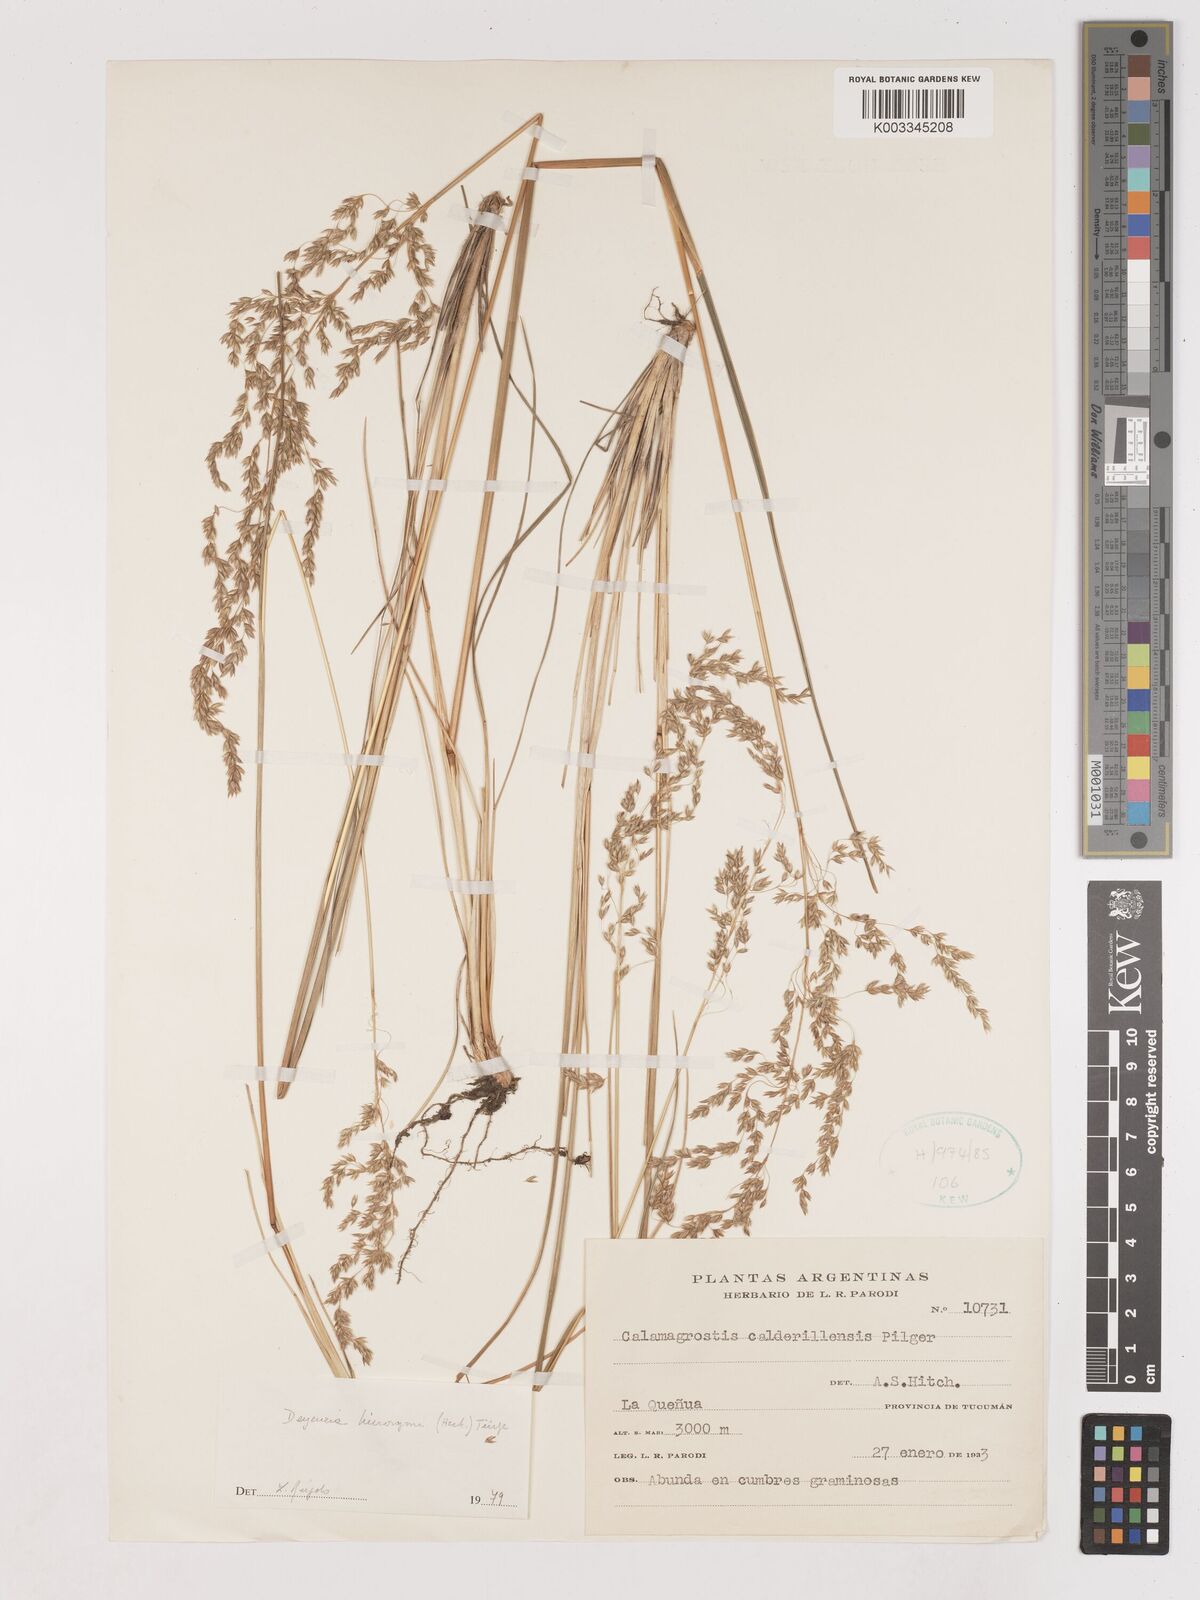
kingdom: Plantae
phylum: Tracheophyta
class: Liliopsida
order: Poales
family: Poaceae
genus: Cinnagrostis
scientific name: Cinnagrostis hieronymi
